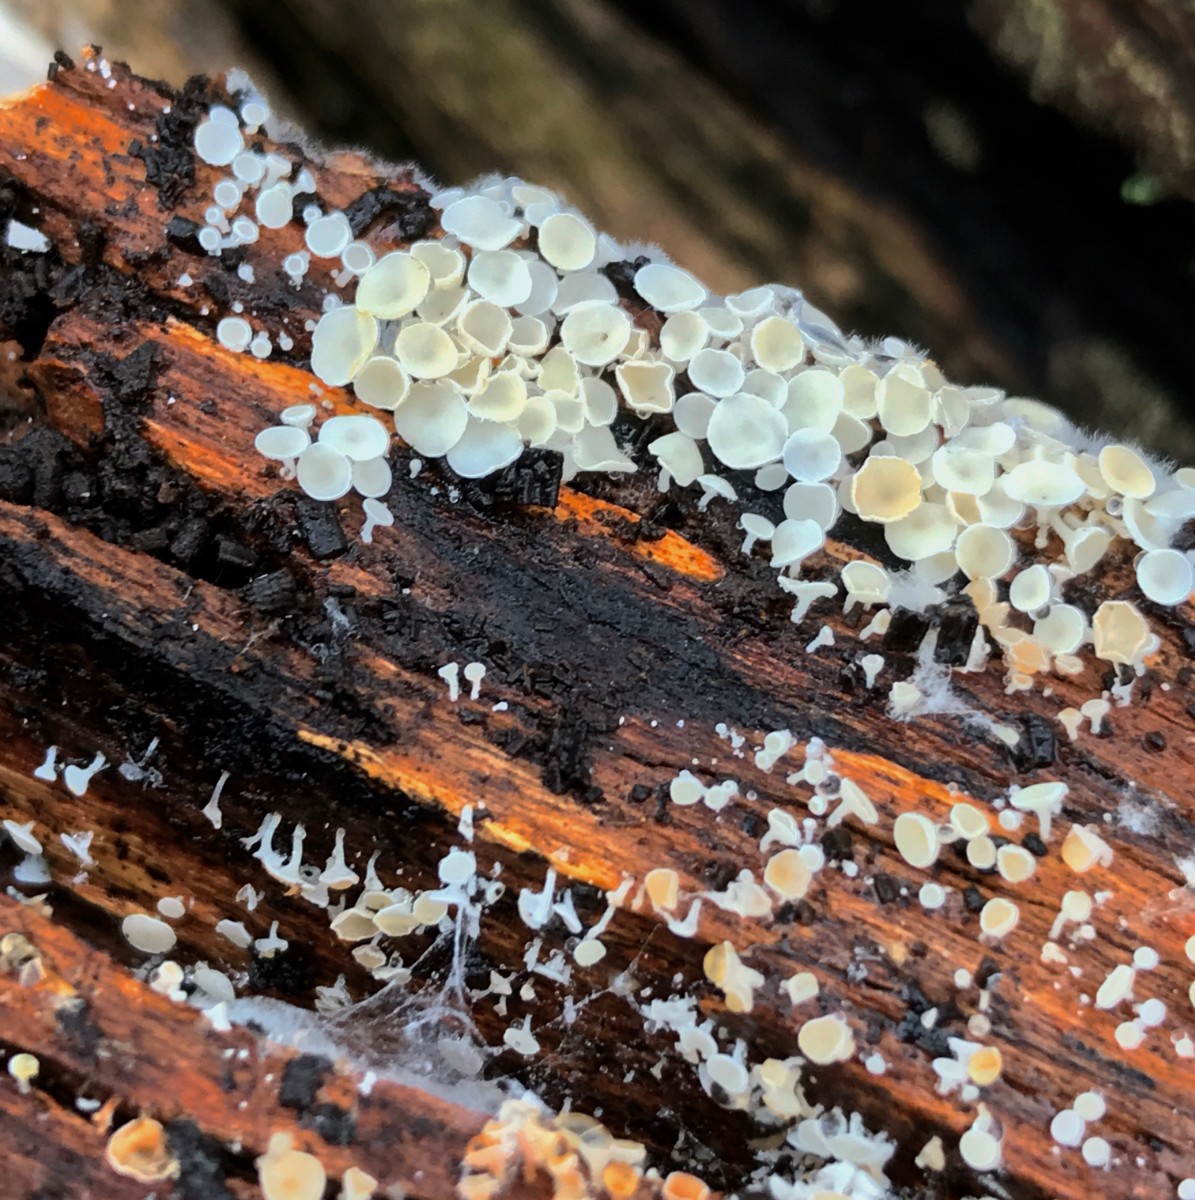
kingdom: Fungi
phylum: Ascomycota
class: Leotiomycetes
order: Helotiales
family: Hyaloscyphaceae
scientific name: Hyaloscyphaceae
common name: frynseskivefamilien
